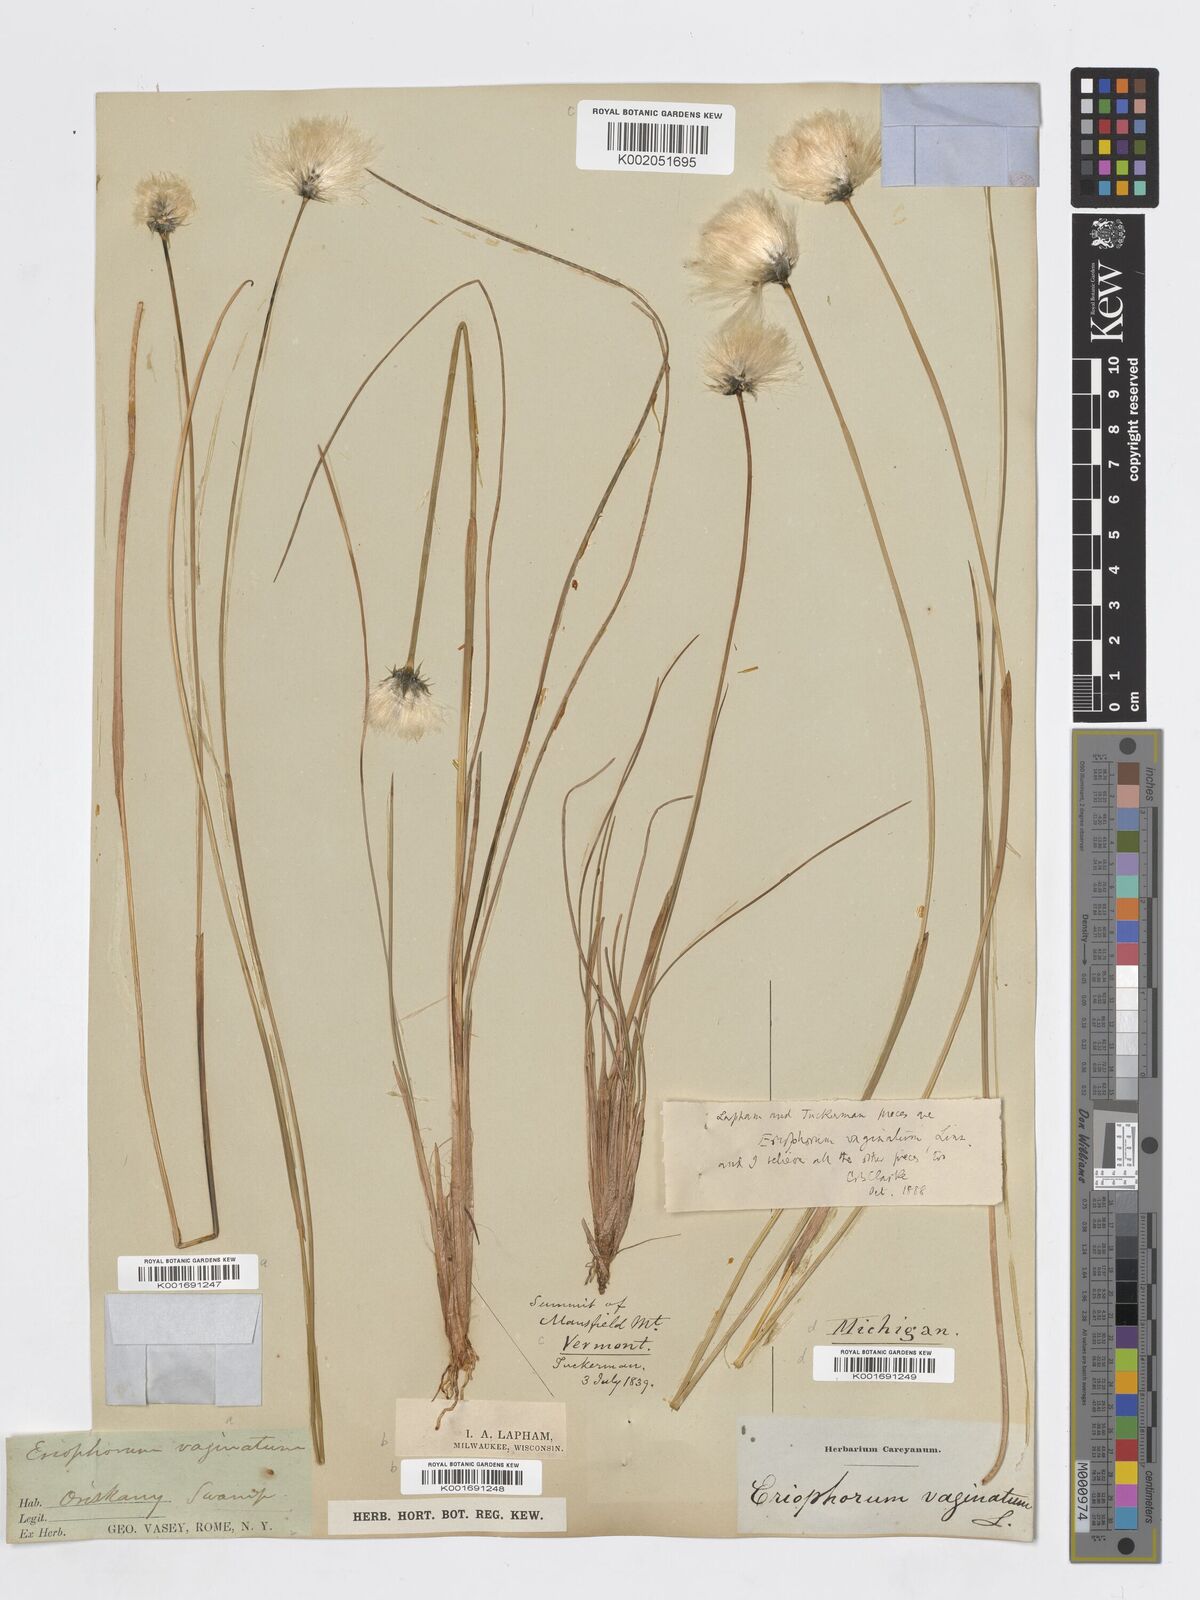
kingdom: Plantae
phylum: Tracheophyta
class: Liliopsida
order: Poales
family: Cyperaceae
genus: Eriophorum
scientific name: Eriophorum vaginatum
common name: Hare's-tail cottongrass
